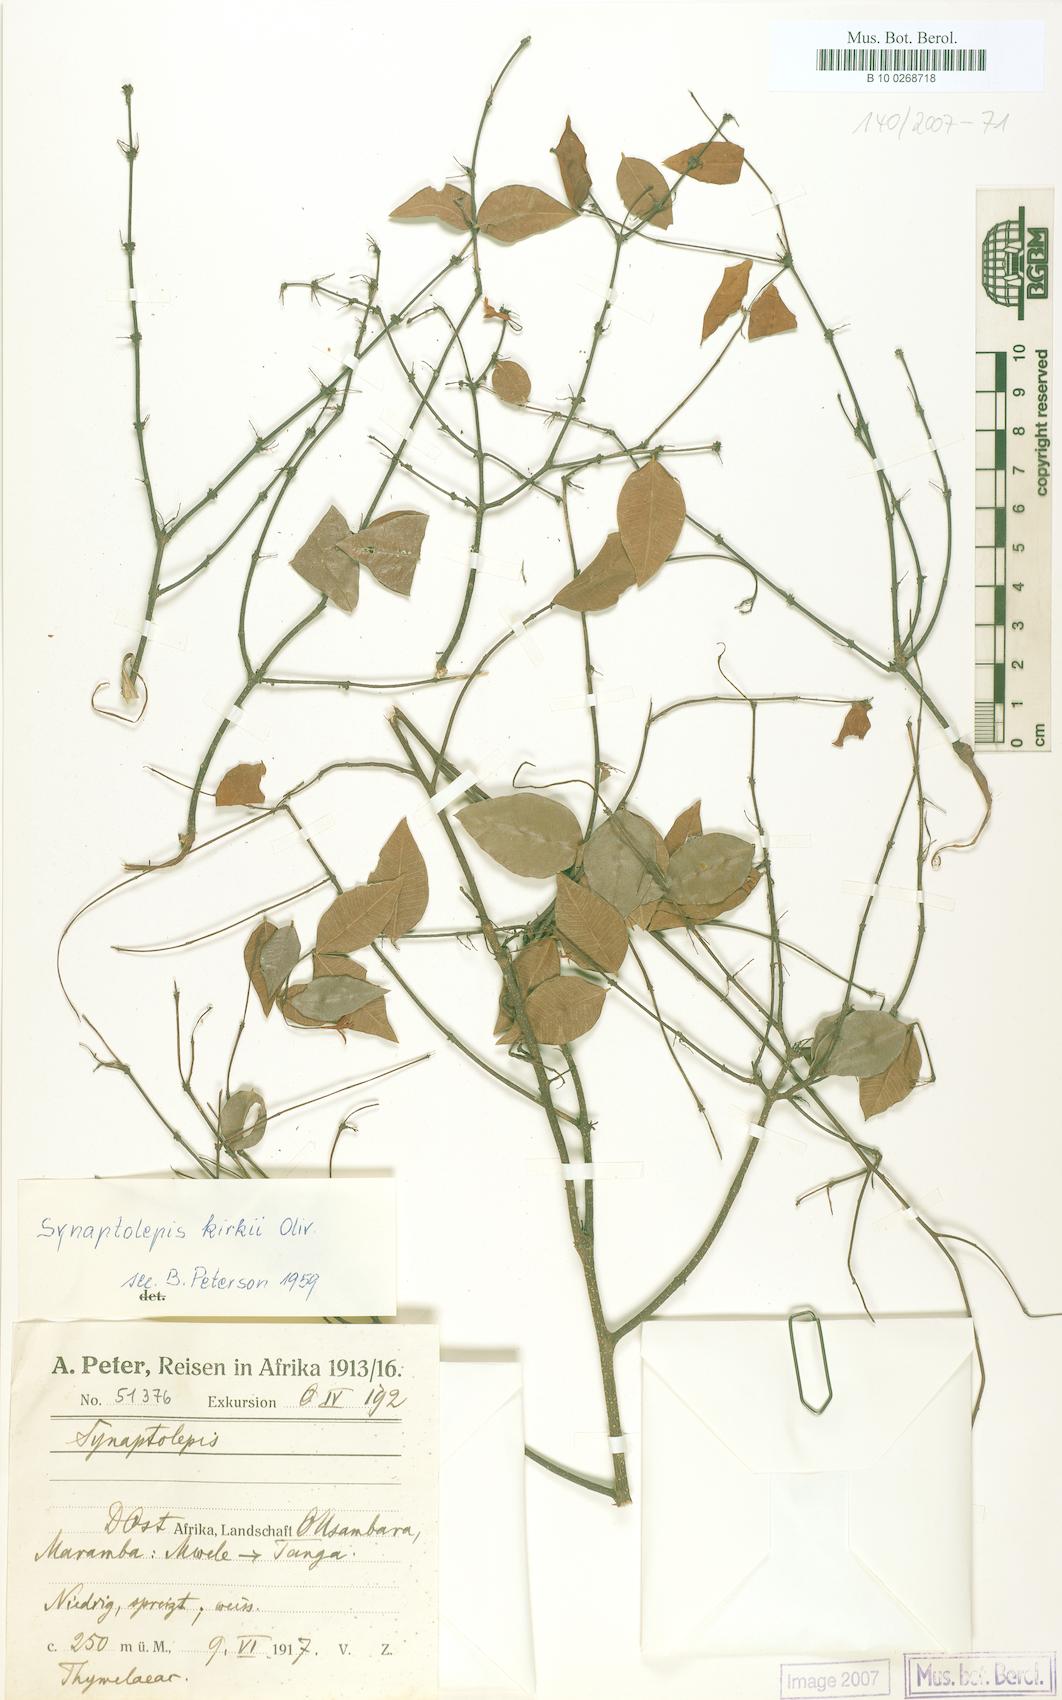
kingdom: Plantae
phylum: Tracheophyta
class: Magnoliopsida
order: Malvales
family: Thymelaeaceae
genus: Synaptolepis
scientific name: Synaptolepis kirkii
